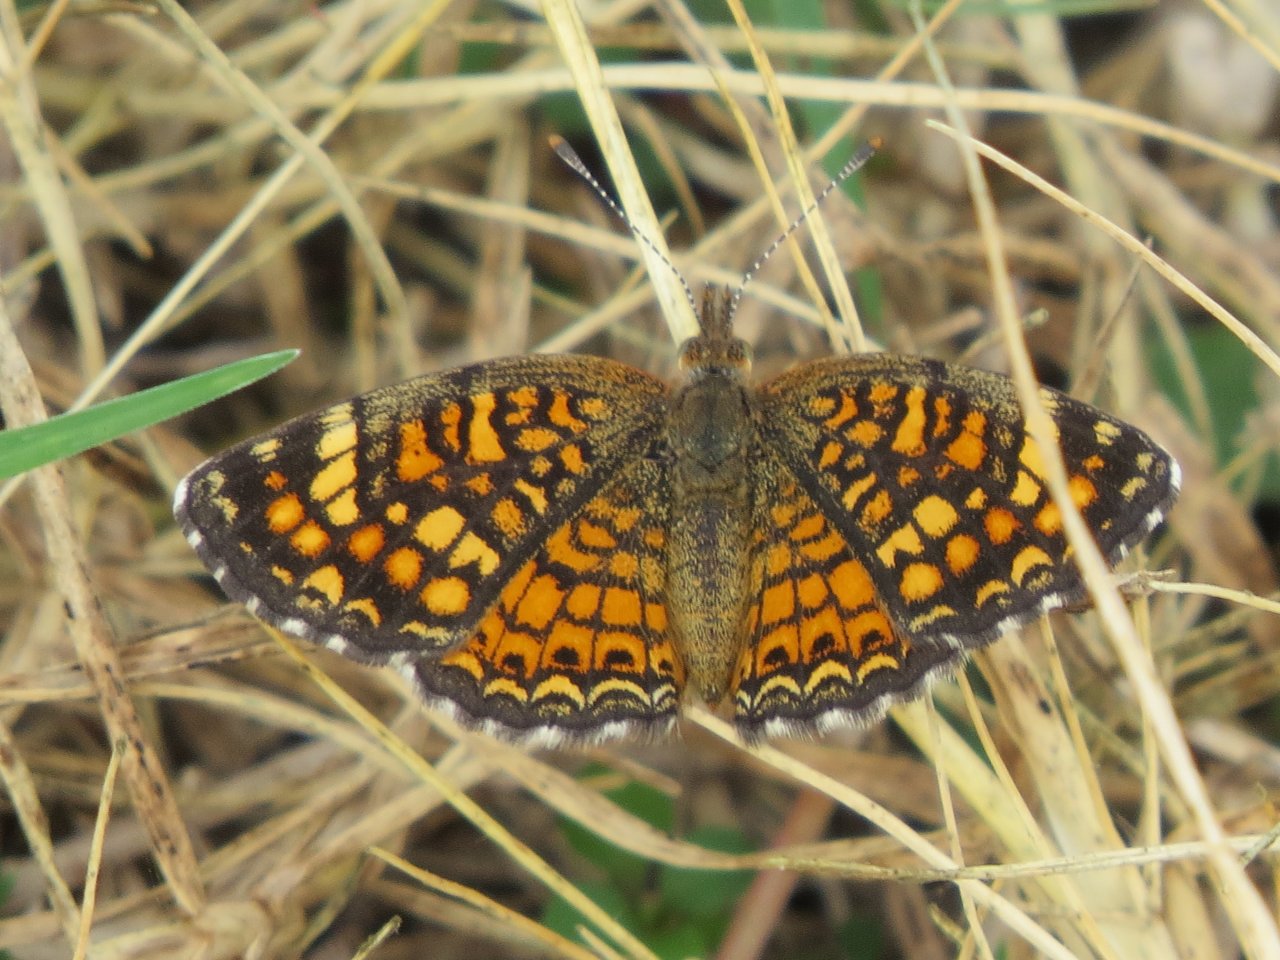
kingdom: Animalia
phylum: Arthropoda
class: Insecta
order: Lepidoptera
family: Nymphalidae
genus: Phyciodes
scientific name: Phyciodes vesta
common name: Vesta Crescent
